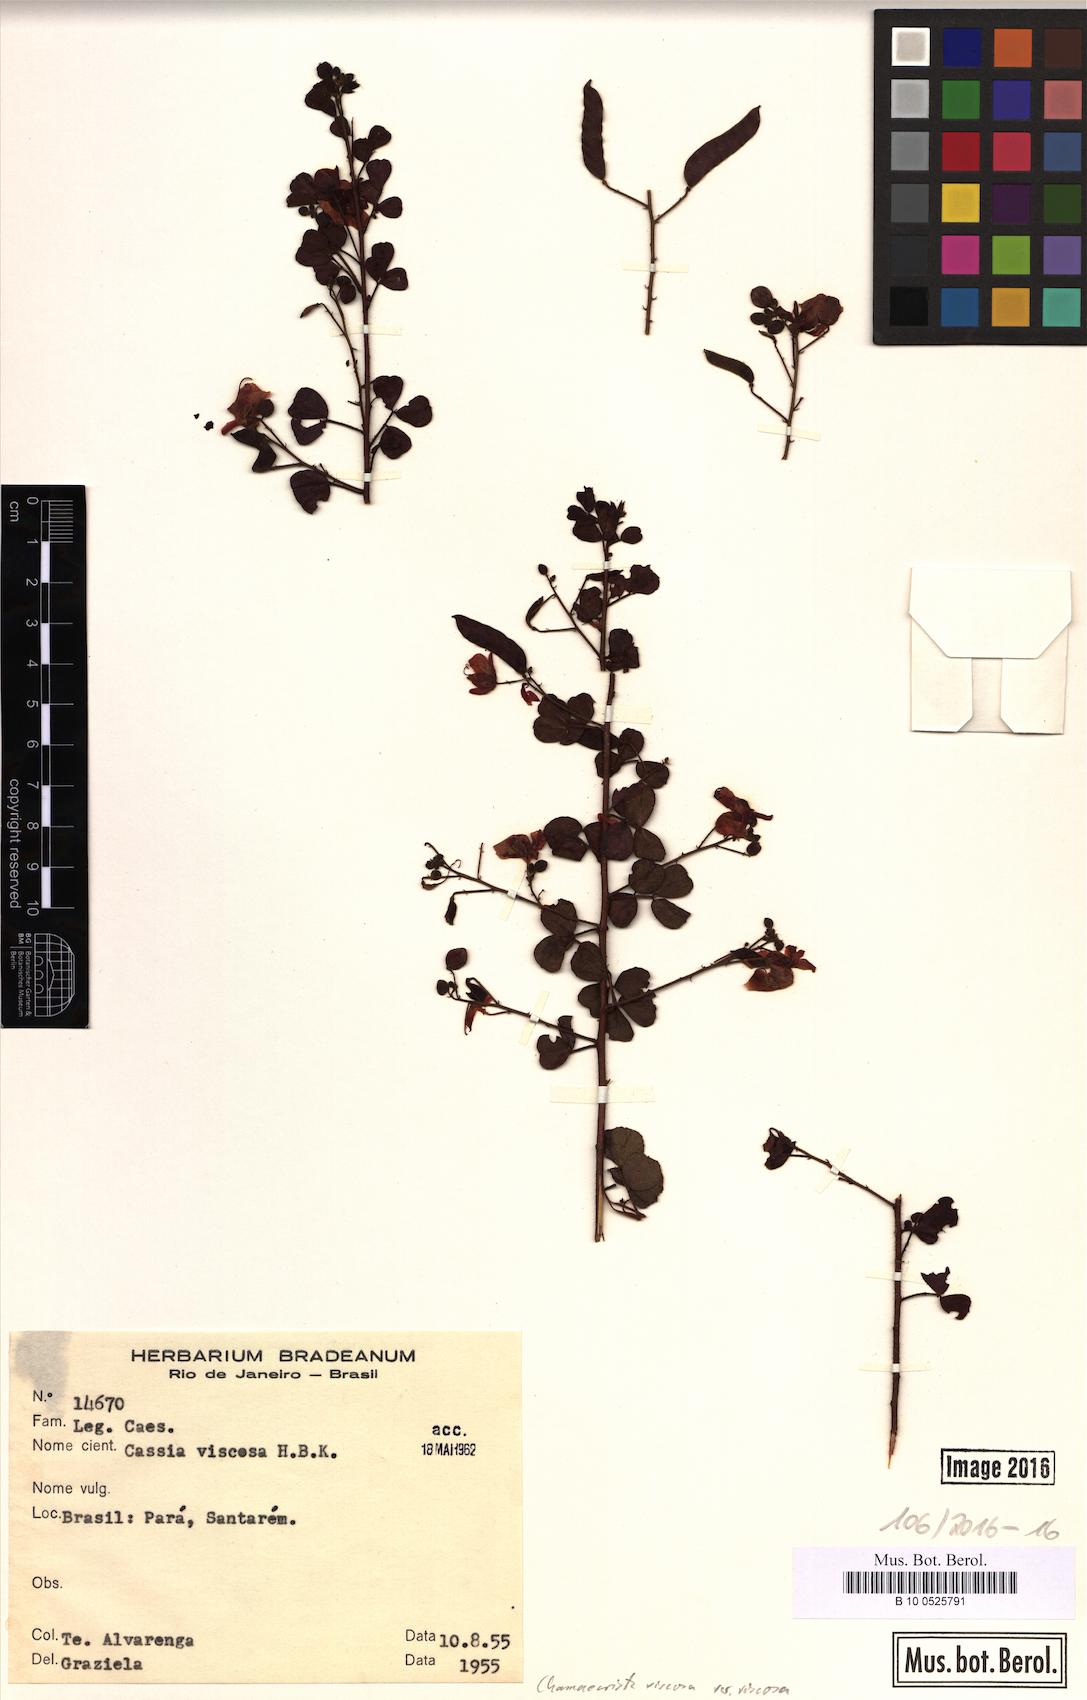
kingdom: Plantae
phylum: Tracheophyta
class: Magnoliopsida
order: Fabales
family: Fabaceae
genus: Chamaecrista
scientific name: Chamaecrista viscosa
